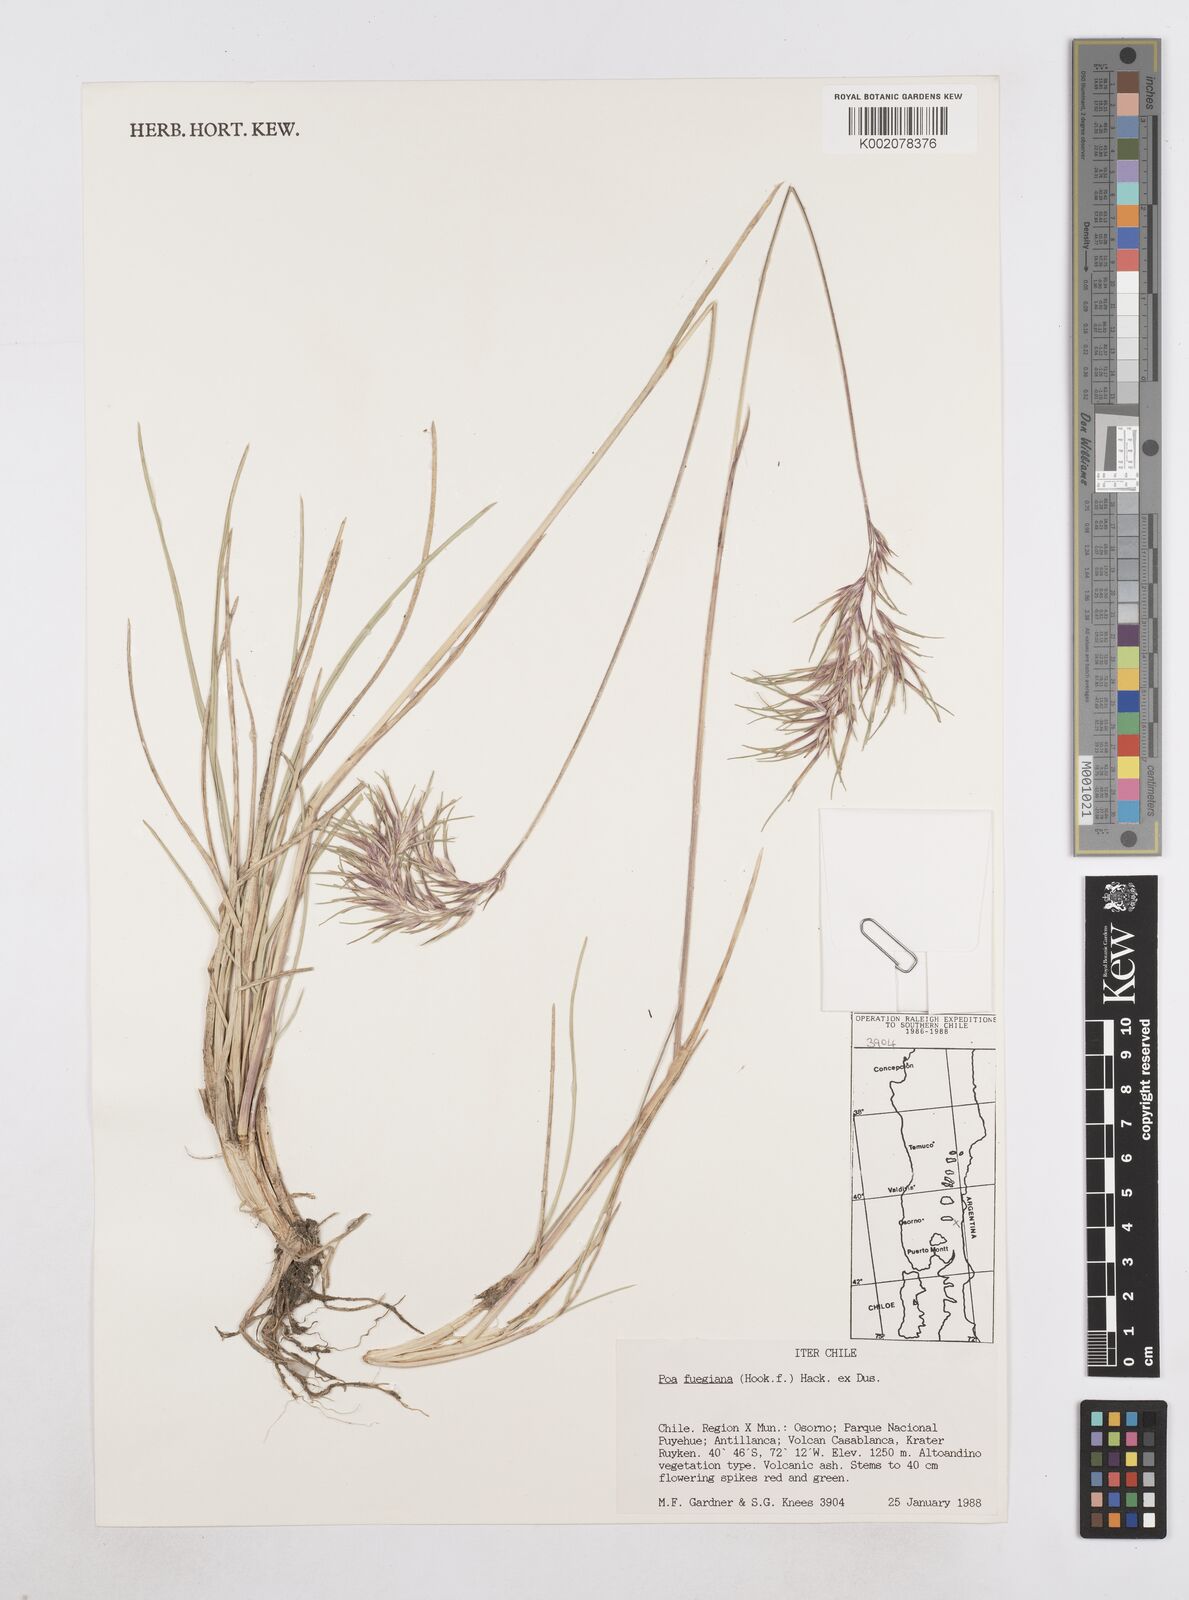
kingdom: Plantae
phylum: Tracheophyta
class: Liliopsida
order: Poales
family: Poaceae
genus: Poa
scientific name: Poa alopecurus
